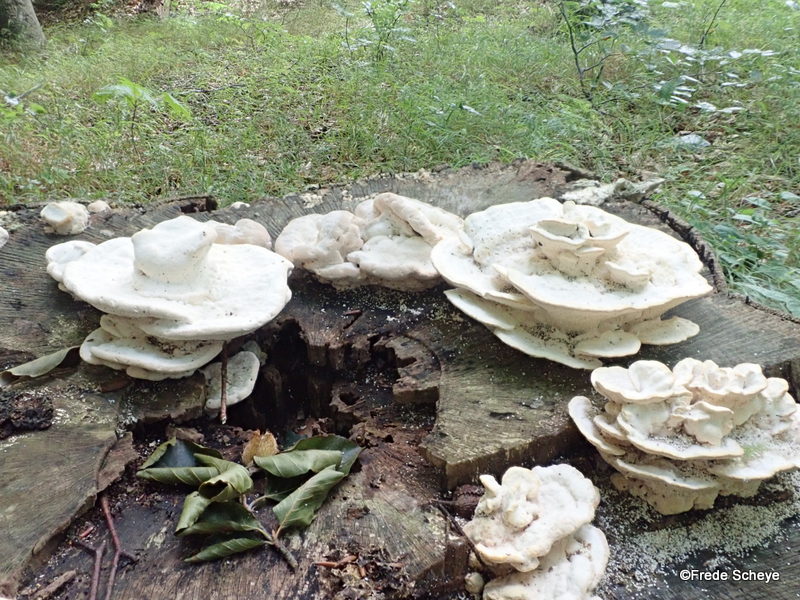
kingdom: Fungi
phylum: Basidiomycota
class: Agaricomycetes
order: Polyporales
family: Polyporaceae
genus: Trametes
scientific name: Trametes gibbosa
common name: puklet læderporesvamp
